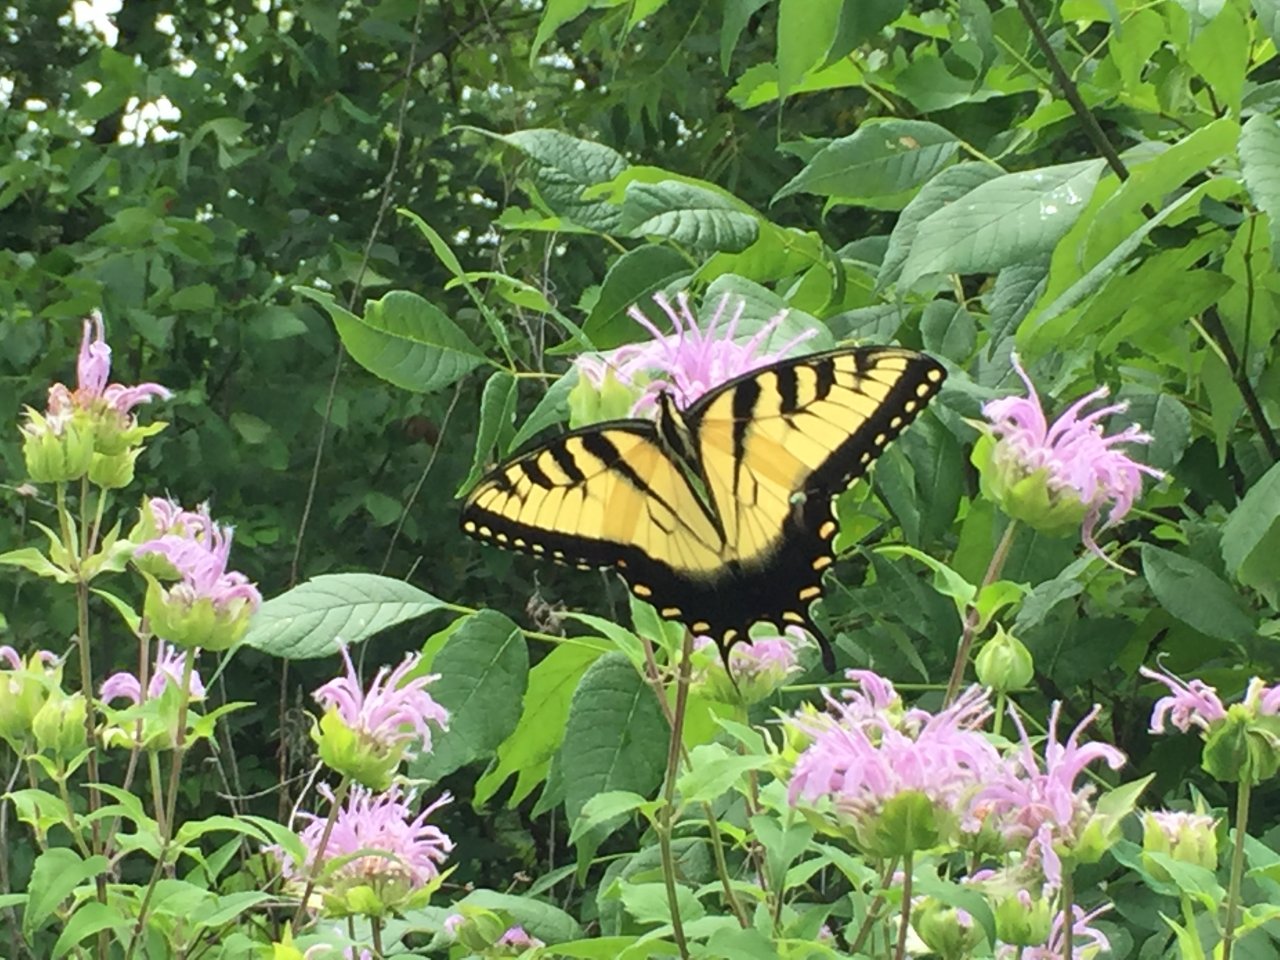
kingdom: Animalia
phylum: Arthropoda
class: Insecta
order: Lepidoptera
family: Papilionidae
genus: Pterourus
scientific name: Pterourus glaucus
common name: Eastern Tiger Swallowtail
